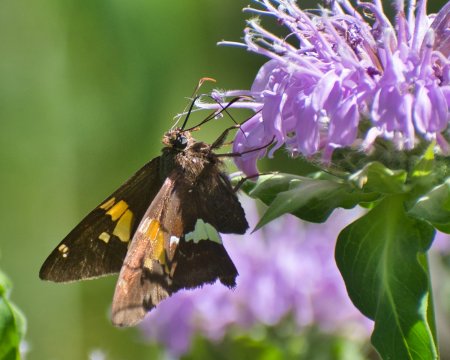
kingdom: Animalia
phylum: Arthropoda
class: Insecta
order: Lepidoptera
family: Hesperiidae
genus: Epargyreus
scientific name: Epargyreus clarus
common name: Silver-spotted Skipper
